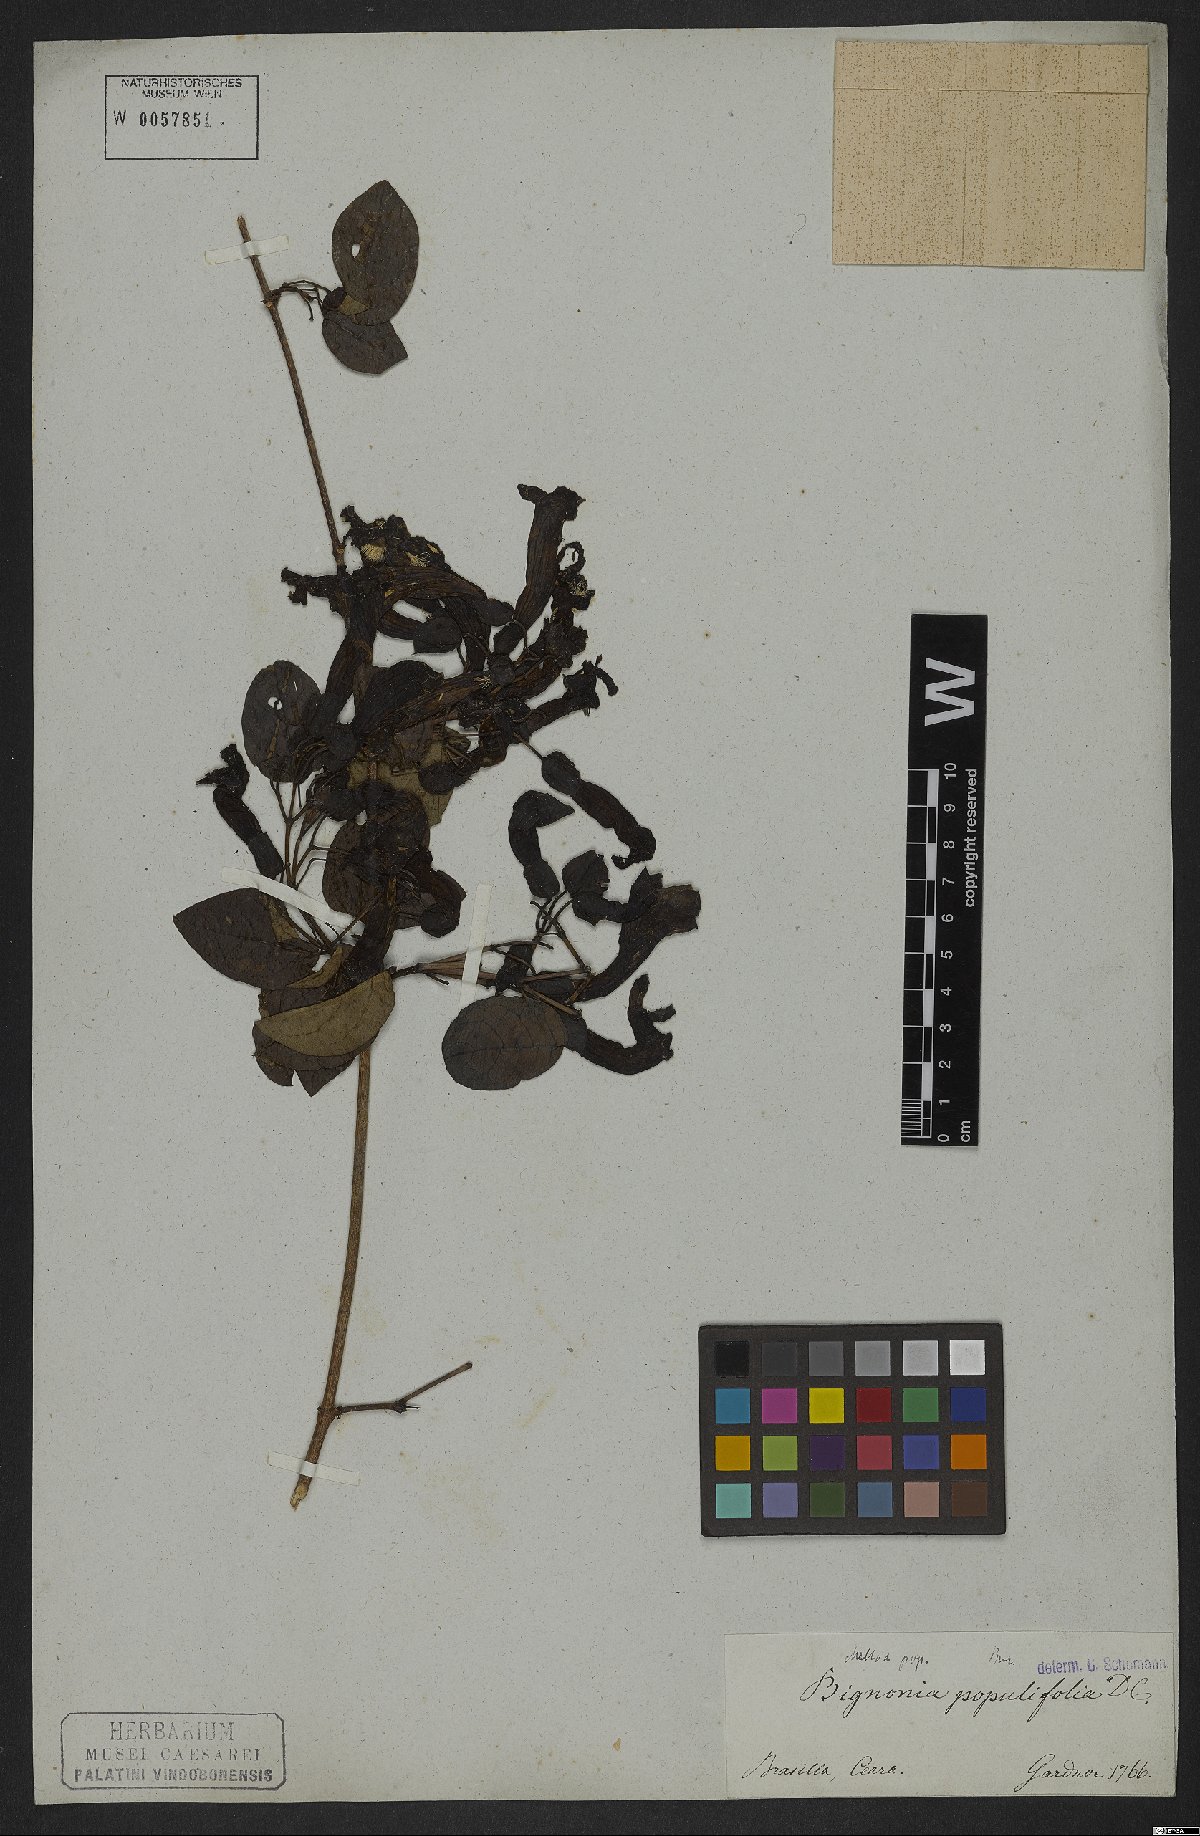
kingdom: Plantae
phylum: Tracheophyta
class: Magnoliopsida
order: Lamiales
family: Bignoniaceae
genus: Dolichandra
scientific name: Dolichandra quadrivalvis
